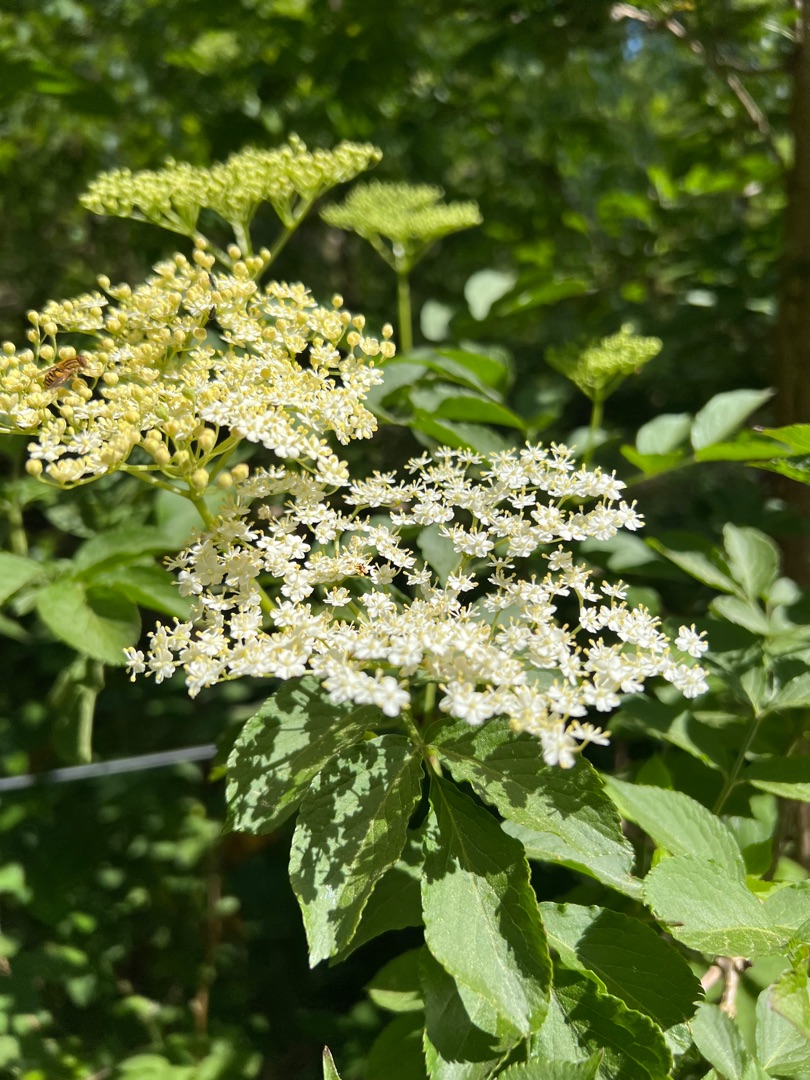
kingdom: Plantae
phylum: Tracheophyta
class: Magnoliopsida
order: Dipsacales
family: Viburnaceae
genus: Sambucus
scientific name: Sambucus nigra
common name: Almindelig hyld
